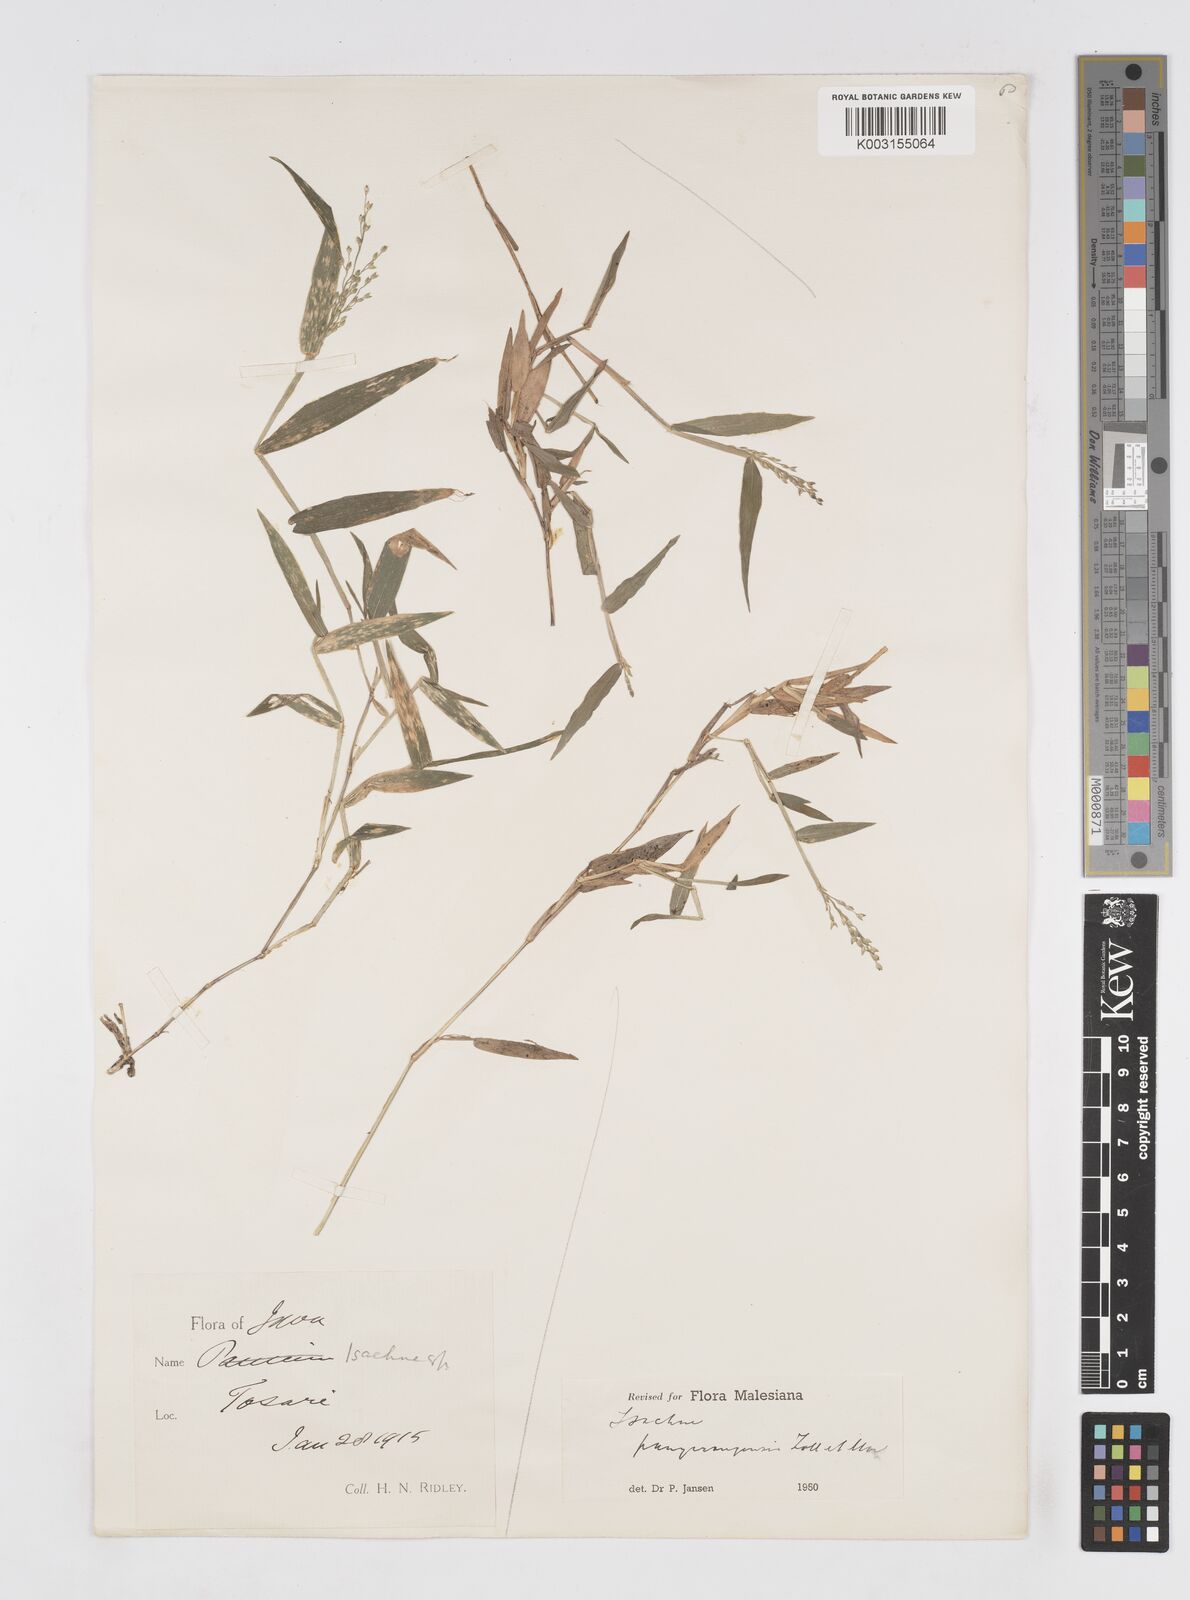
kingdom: Plantae
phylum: Tracheophyta
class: Liliopsida
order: Poales
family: Poaceae
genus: Isachne
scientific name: Isachne pangerangensis
